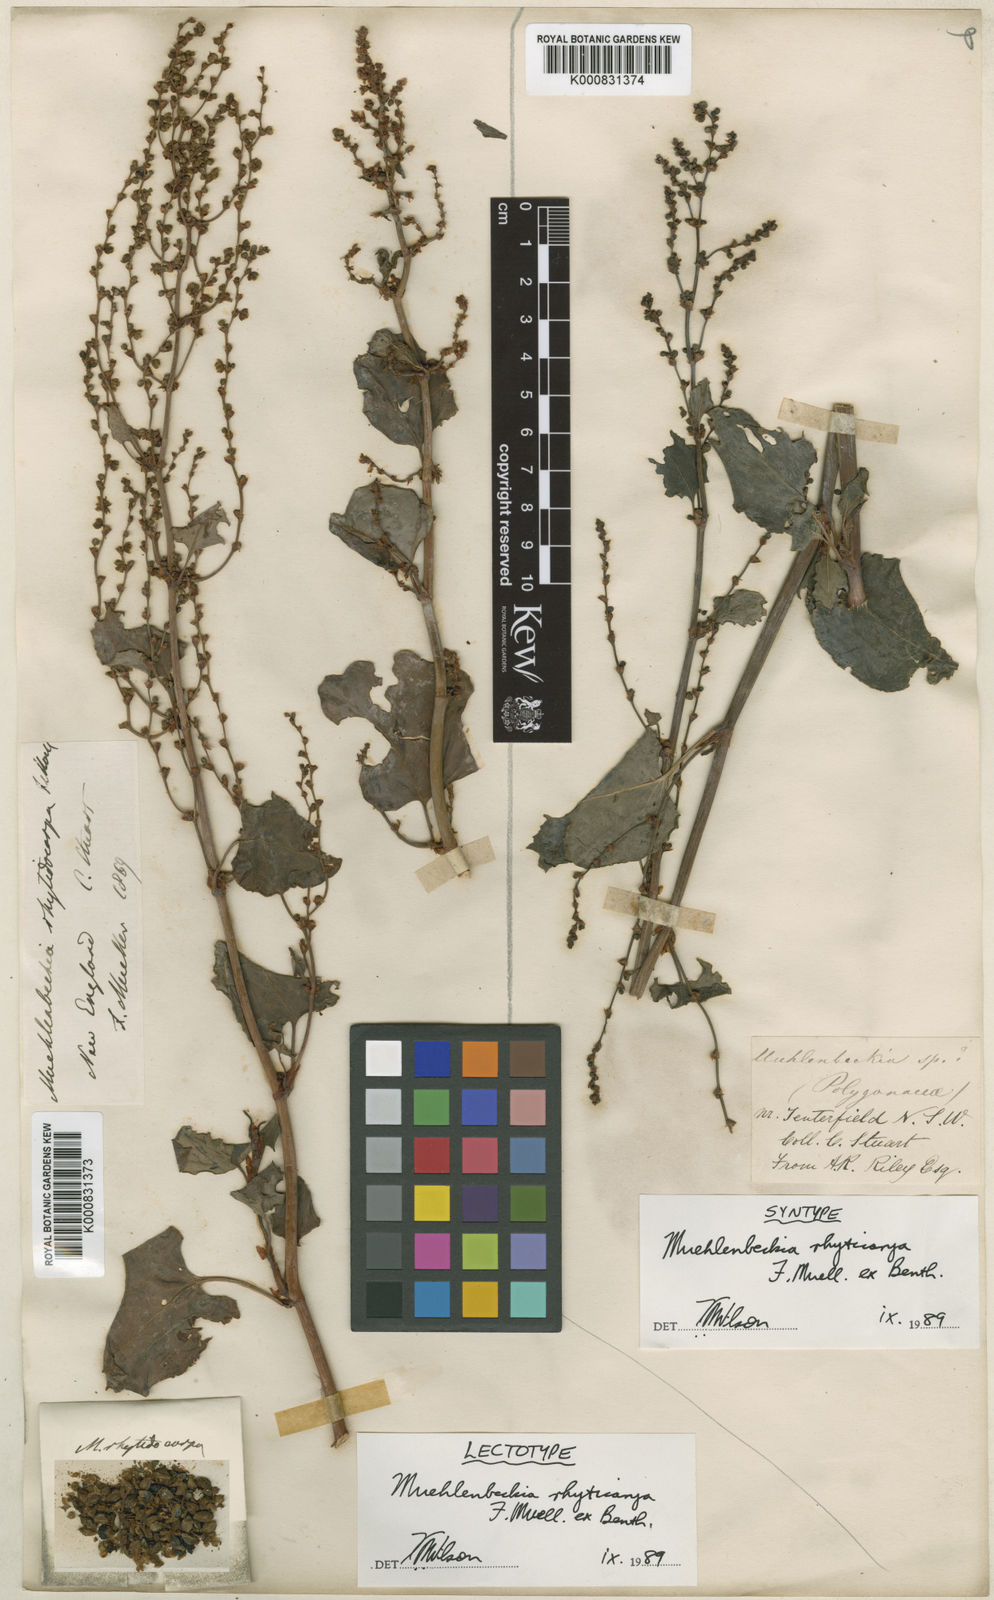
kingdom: Plantae
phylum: Tracheophyta
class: Magnoliopsida
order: Caryophyllales
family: Polygonaceae
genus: Muehlenbeckia
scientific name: Muehlenbeckia
